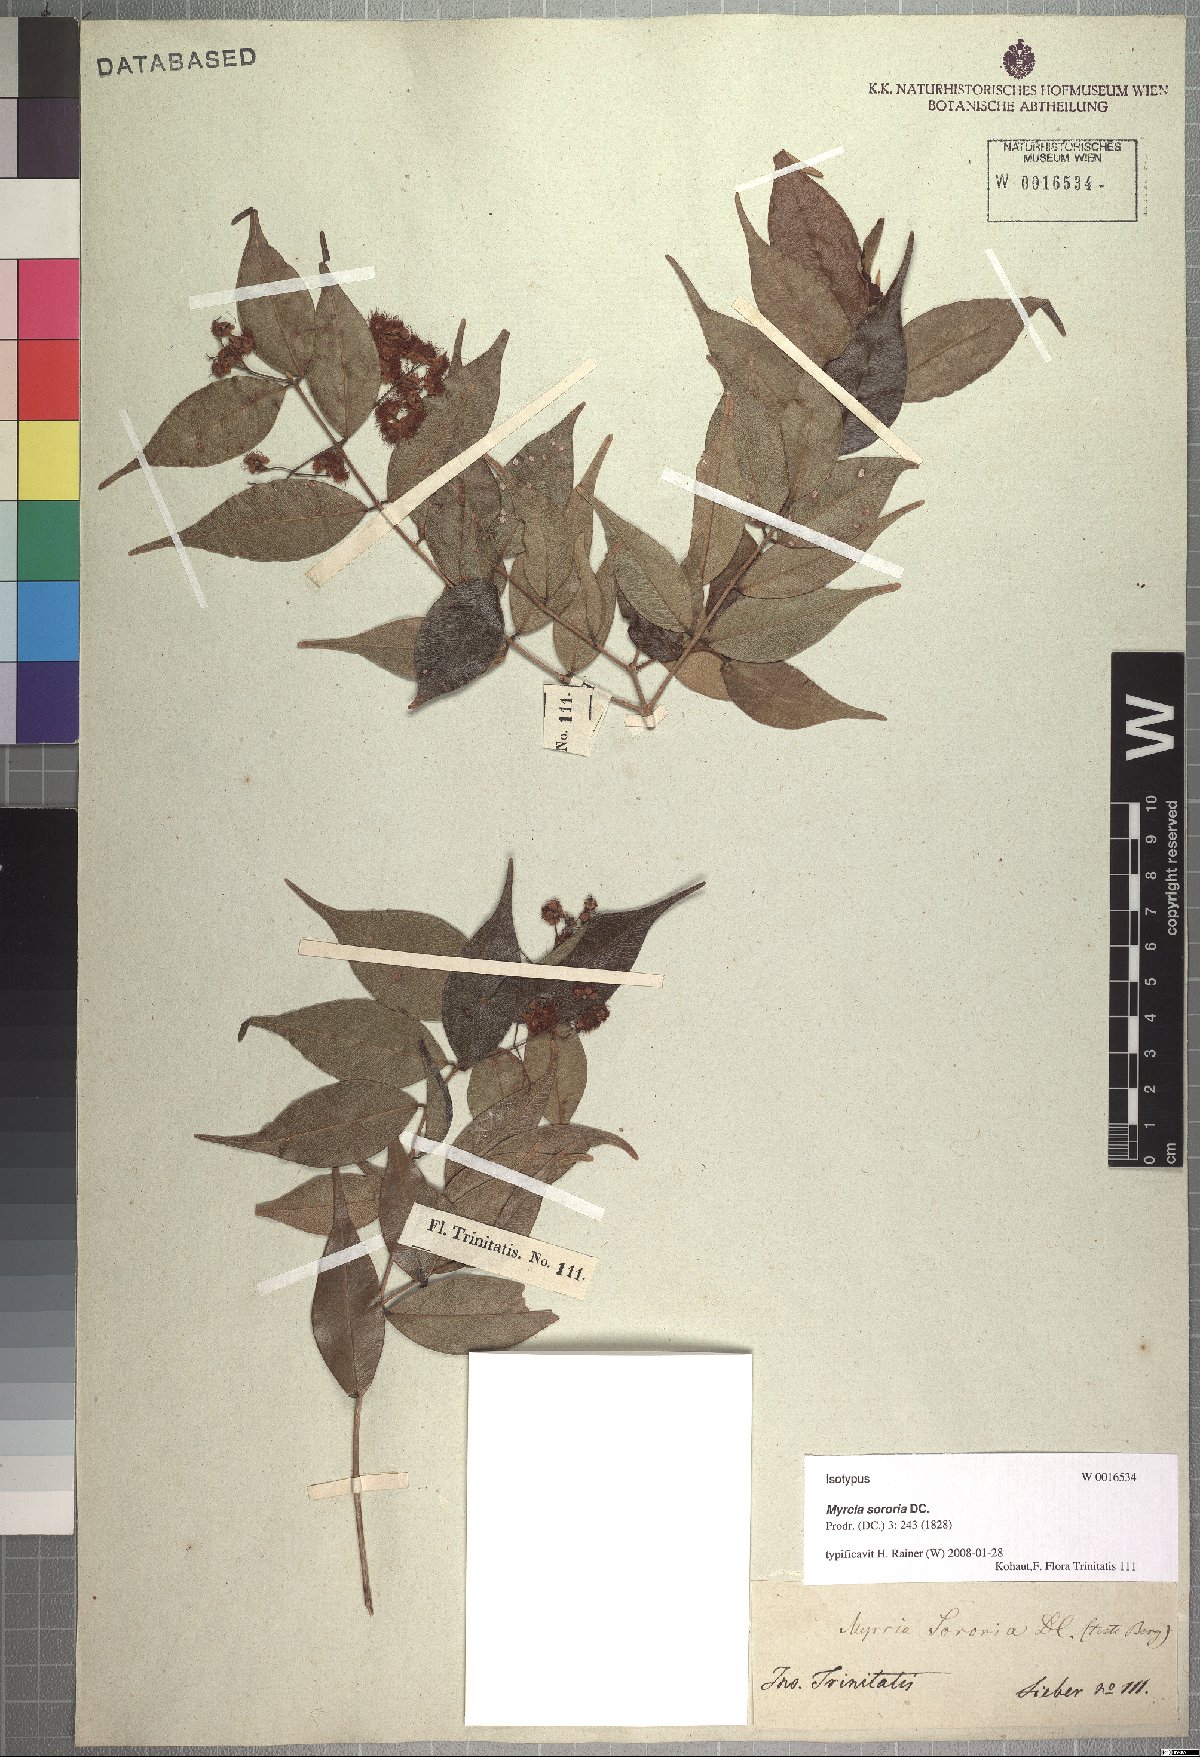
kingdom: Plantae
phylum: Tracheophyta
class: Magnoliopsida
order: Myrtales
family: Myrtaceae
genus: Myrcia
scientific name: Myrcia splendens
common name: Surinam cherry
